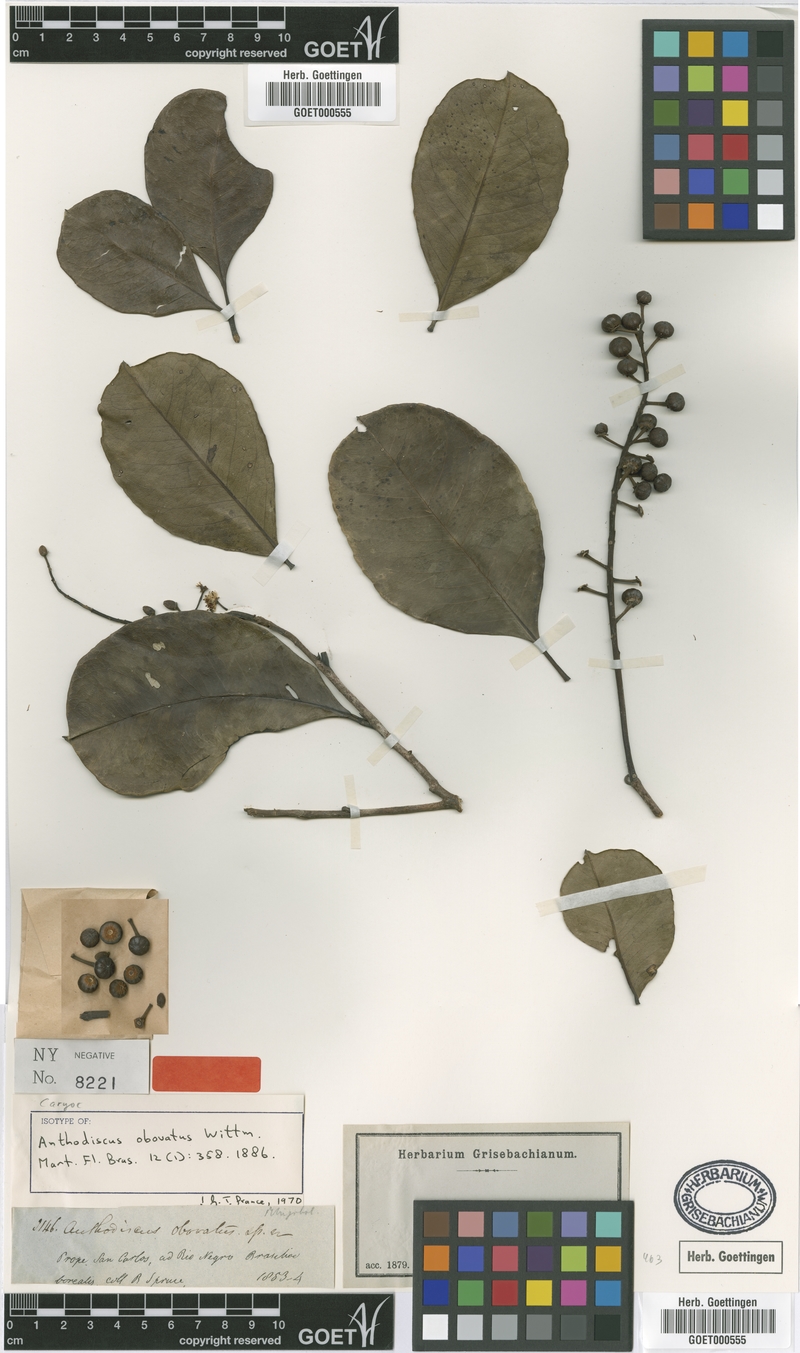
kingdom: Plantae
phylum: Tracheophyta
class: Magnoliopsida
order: Malpighiales
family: Caryocaraceae
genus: Anthodiscus
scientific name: Anthodiscus obovatus
